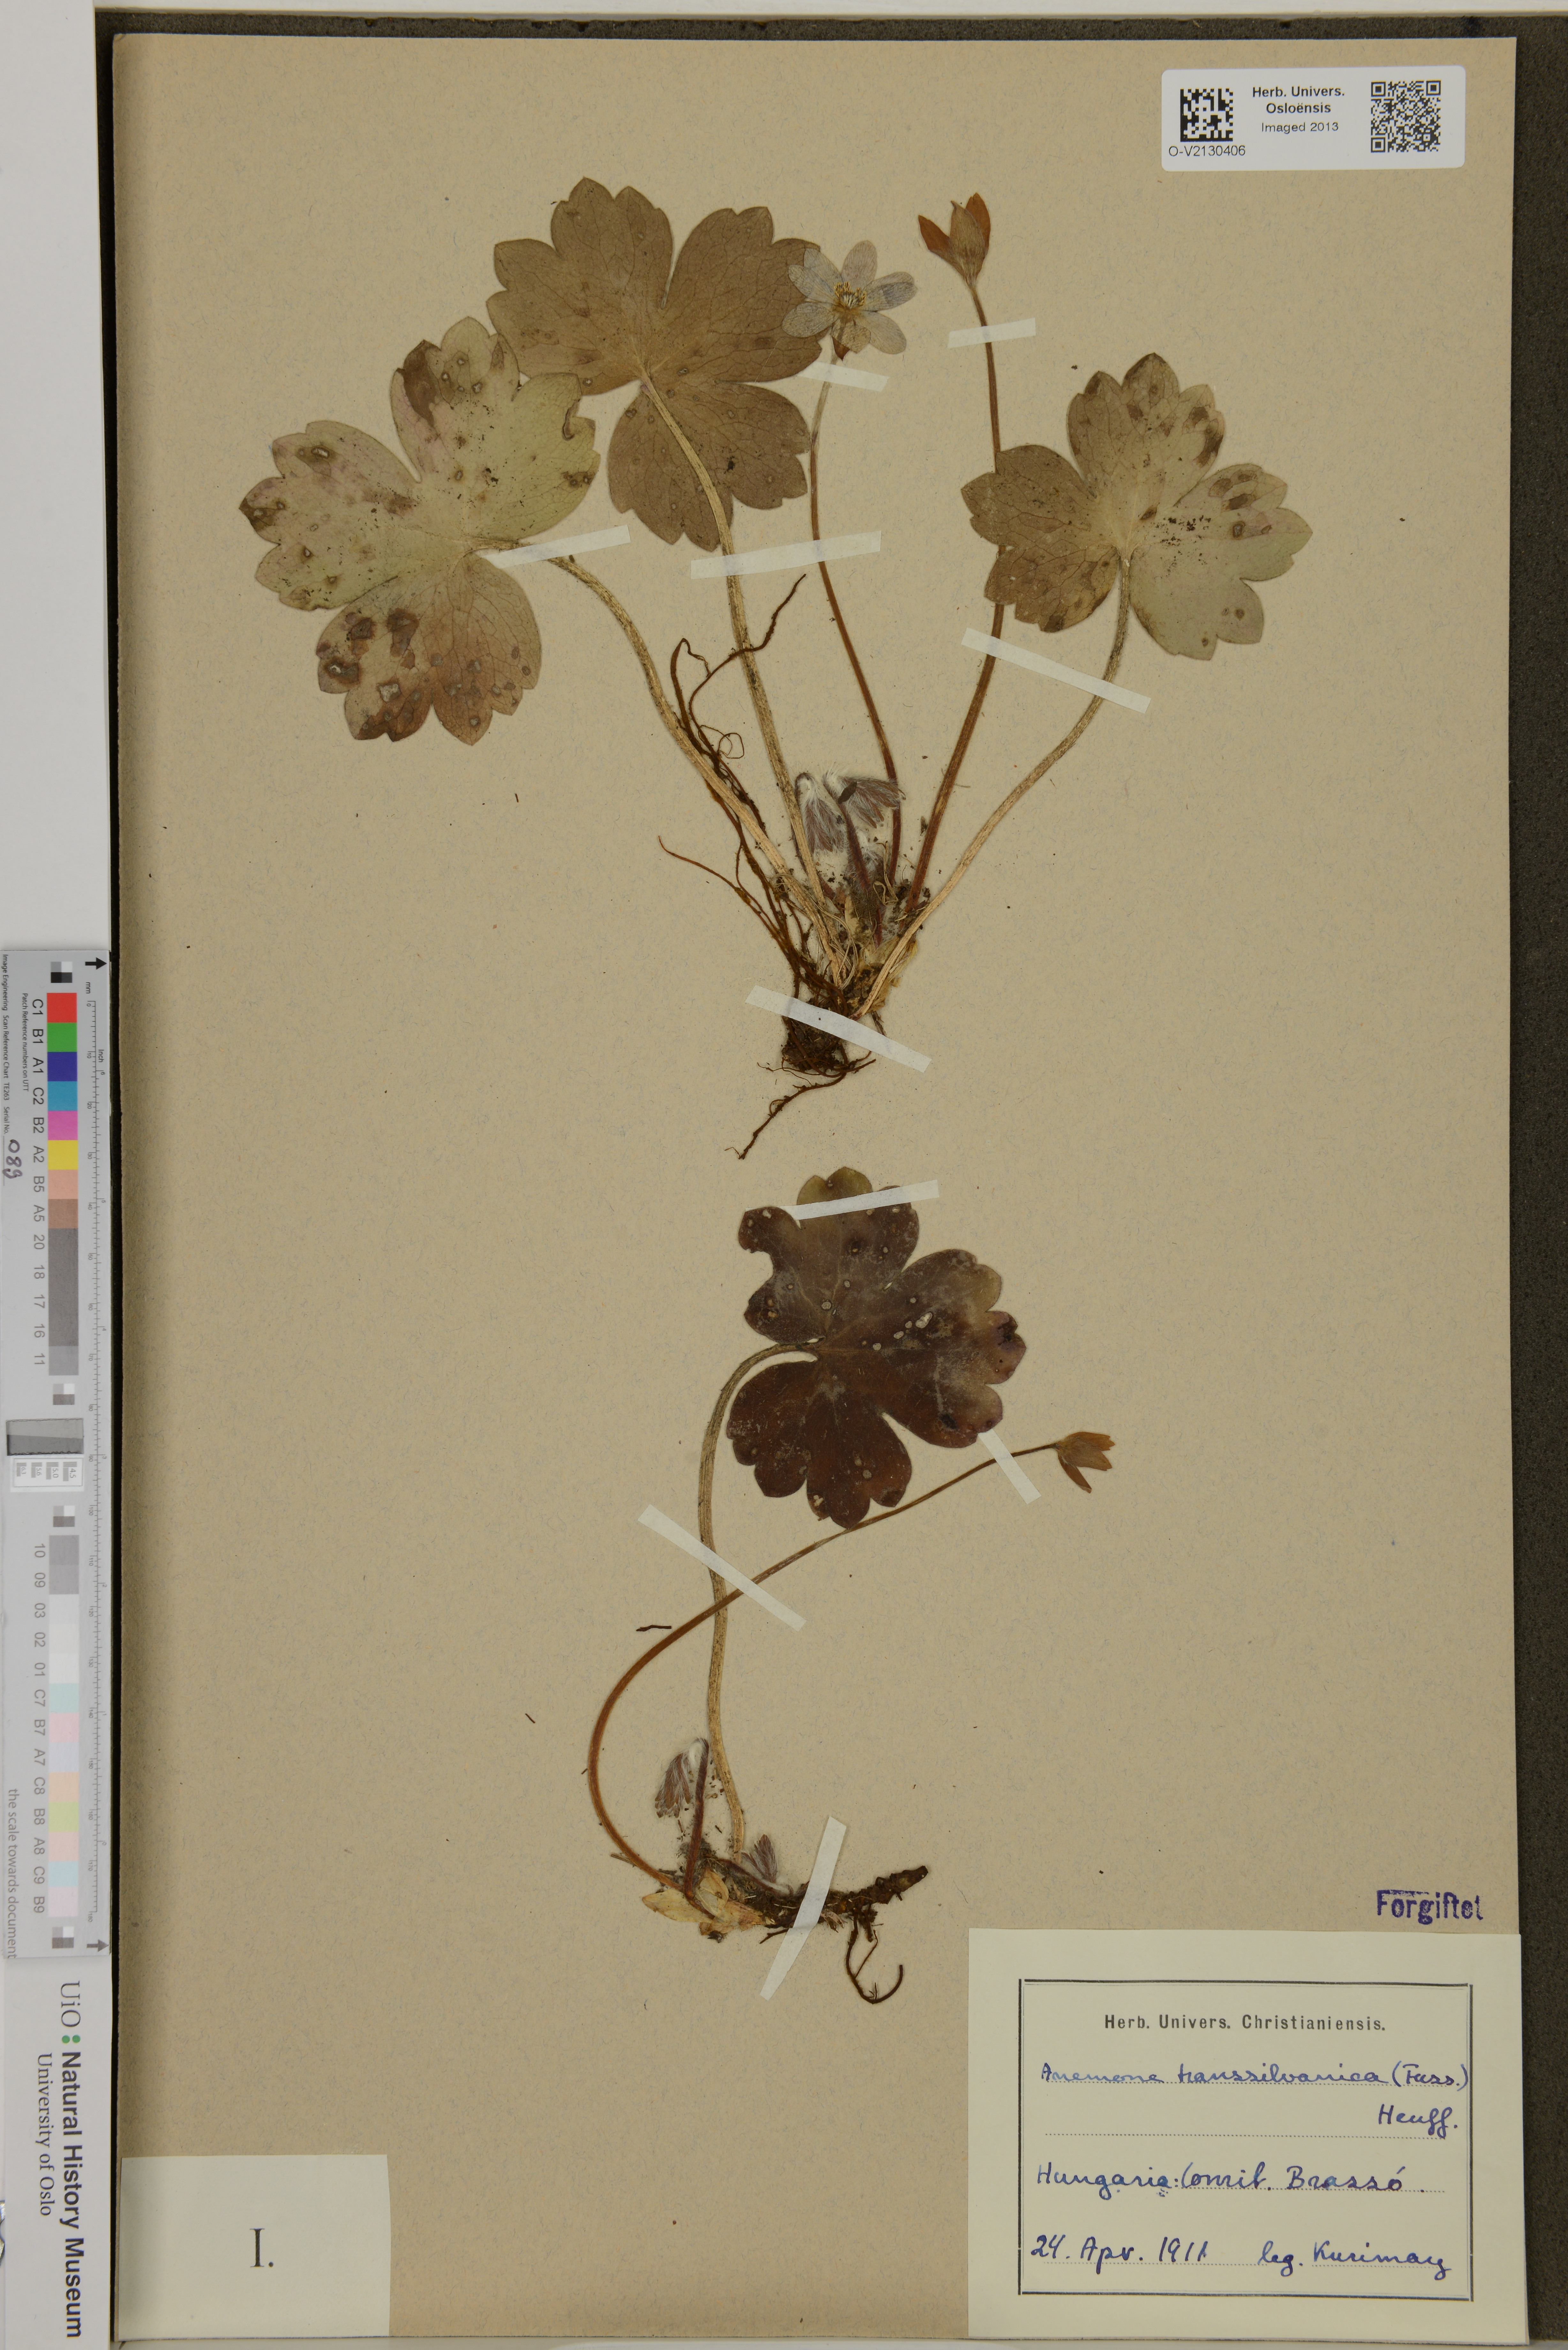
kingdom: Plantae
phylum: Tracheophyta
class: Magnoliopsida
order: Ranunculales
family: Ranunculaceae
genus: Hepatica
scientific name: Hepatica transsilvanica
